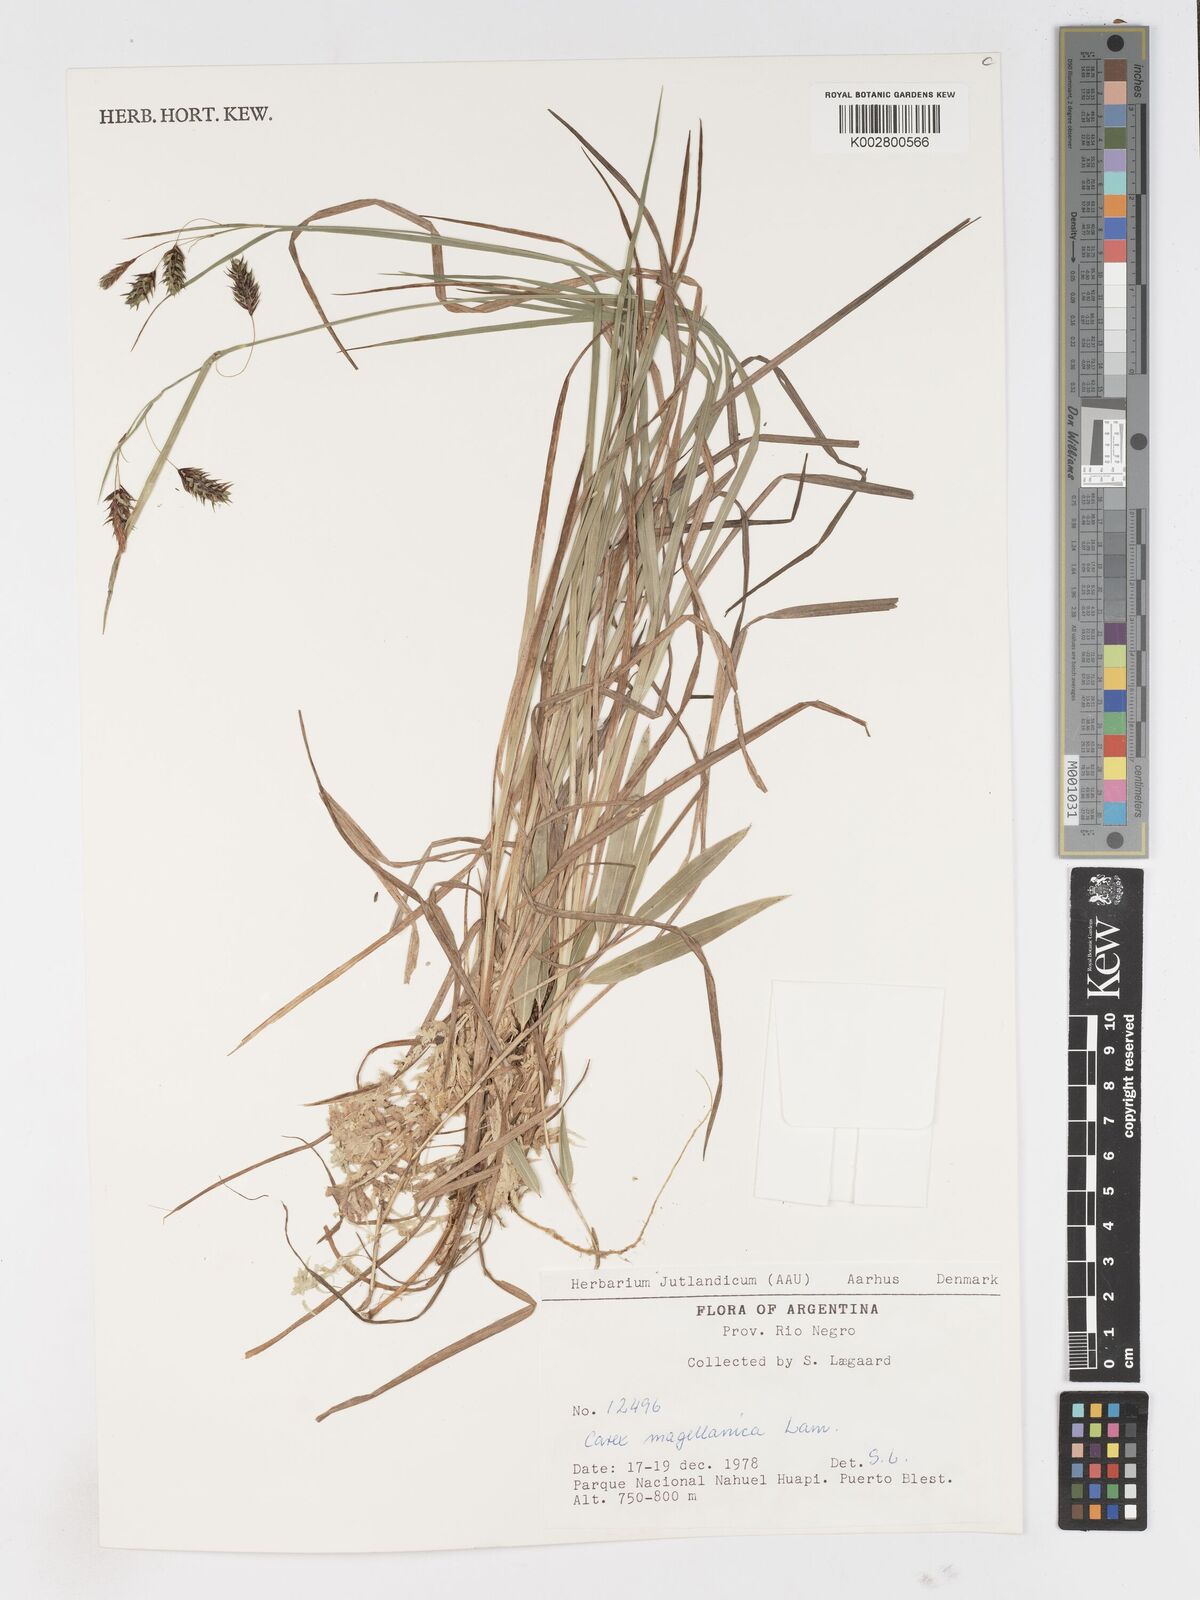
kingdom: Plantae
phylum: Tracheophyta
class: Liliopsida
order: Poales
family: Cyperaceae
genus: Carex
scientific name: Carex magellanica
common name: Bog sedge
